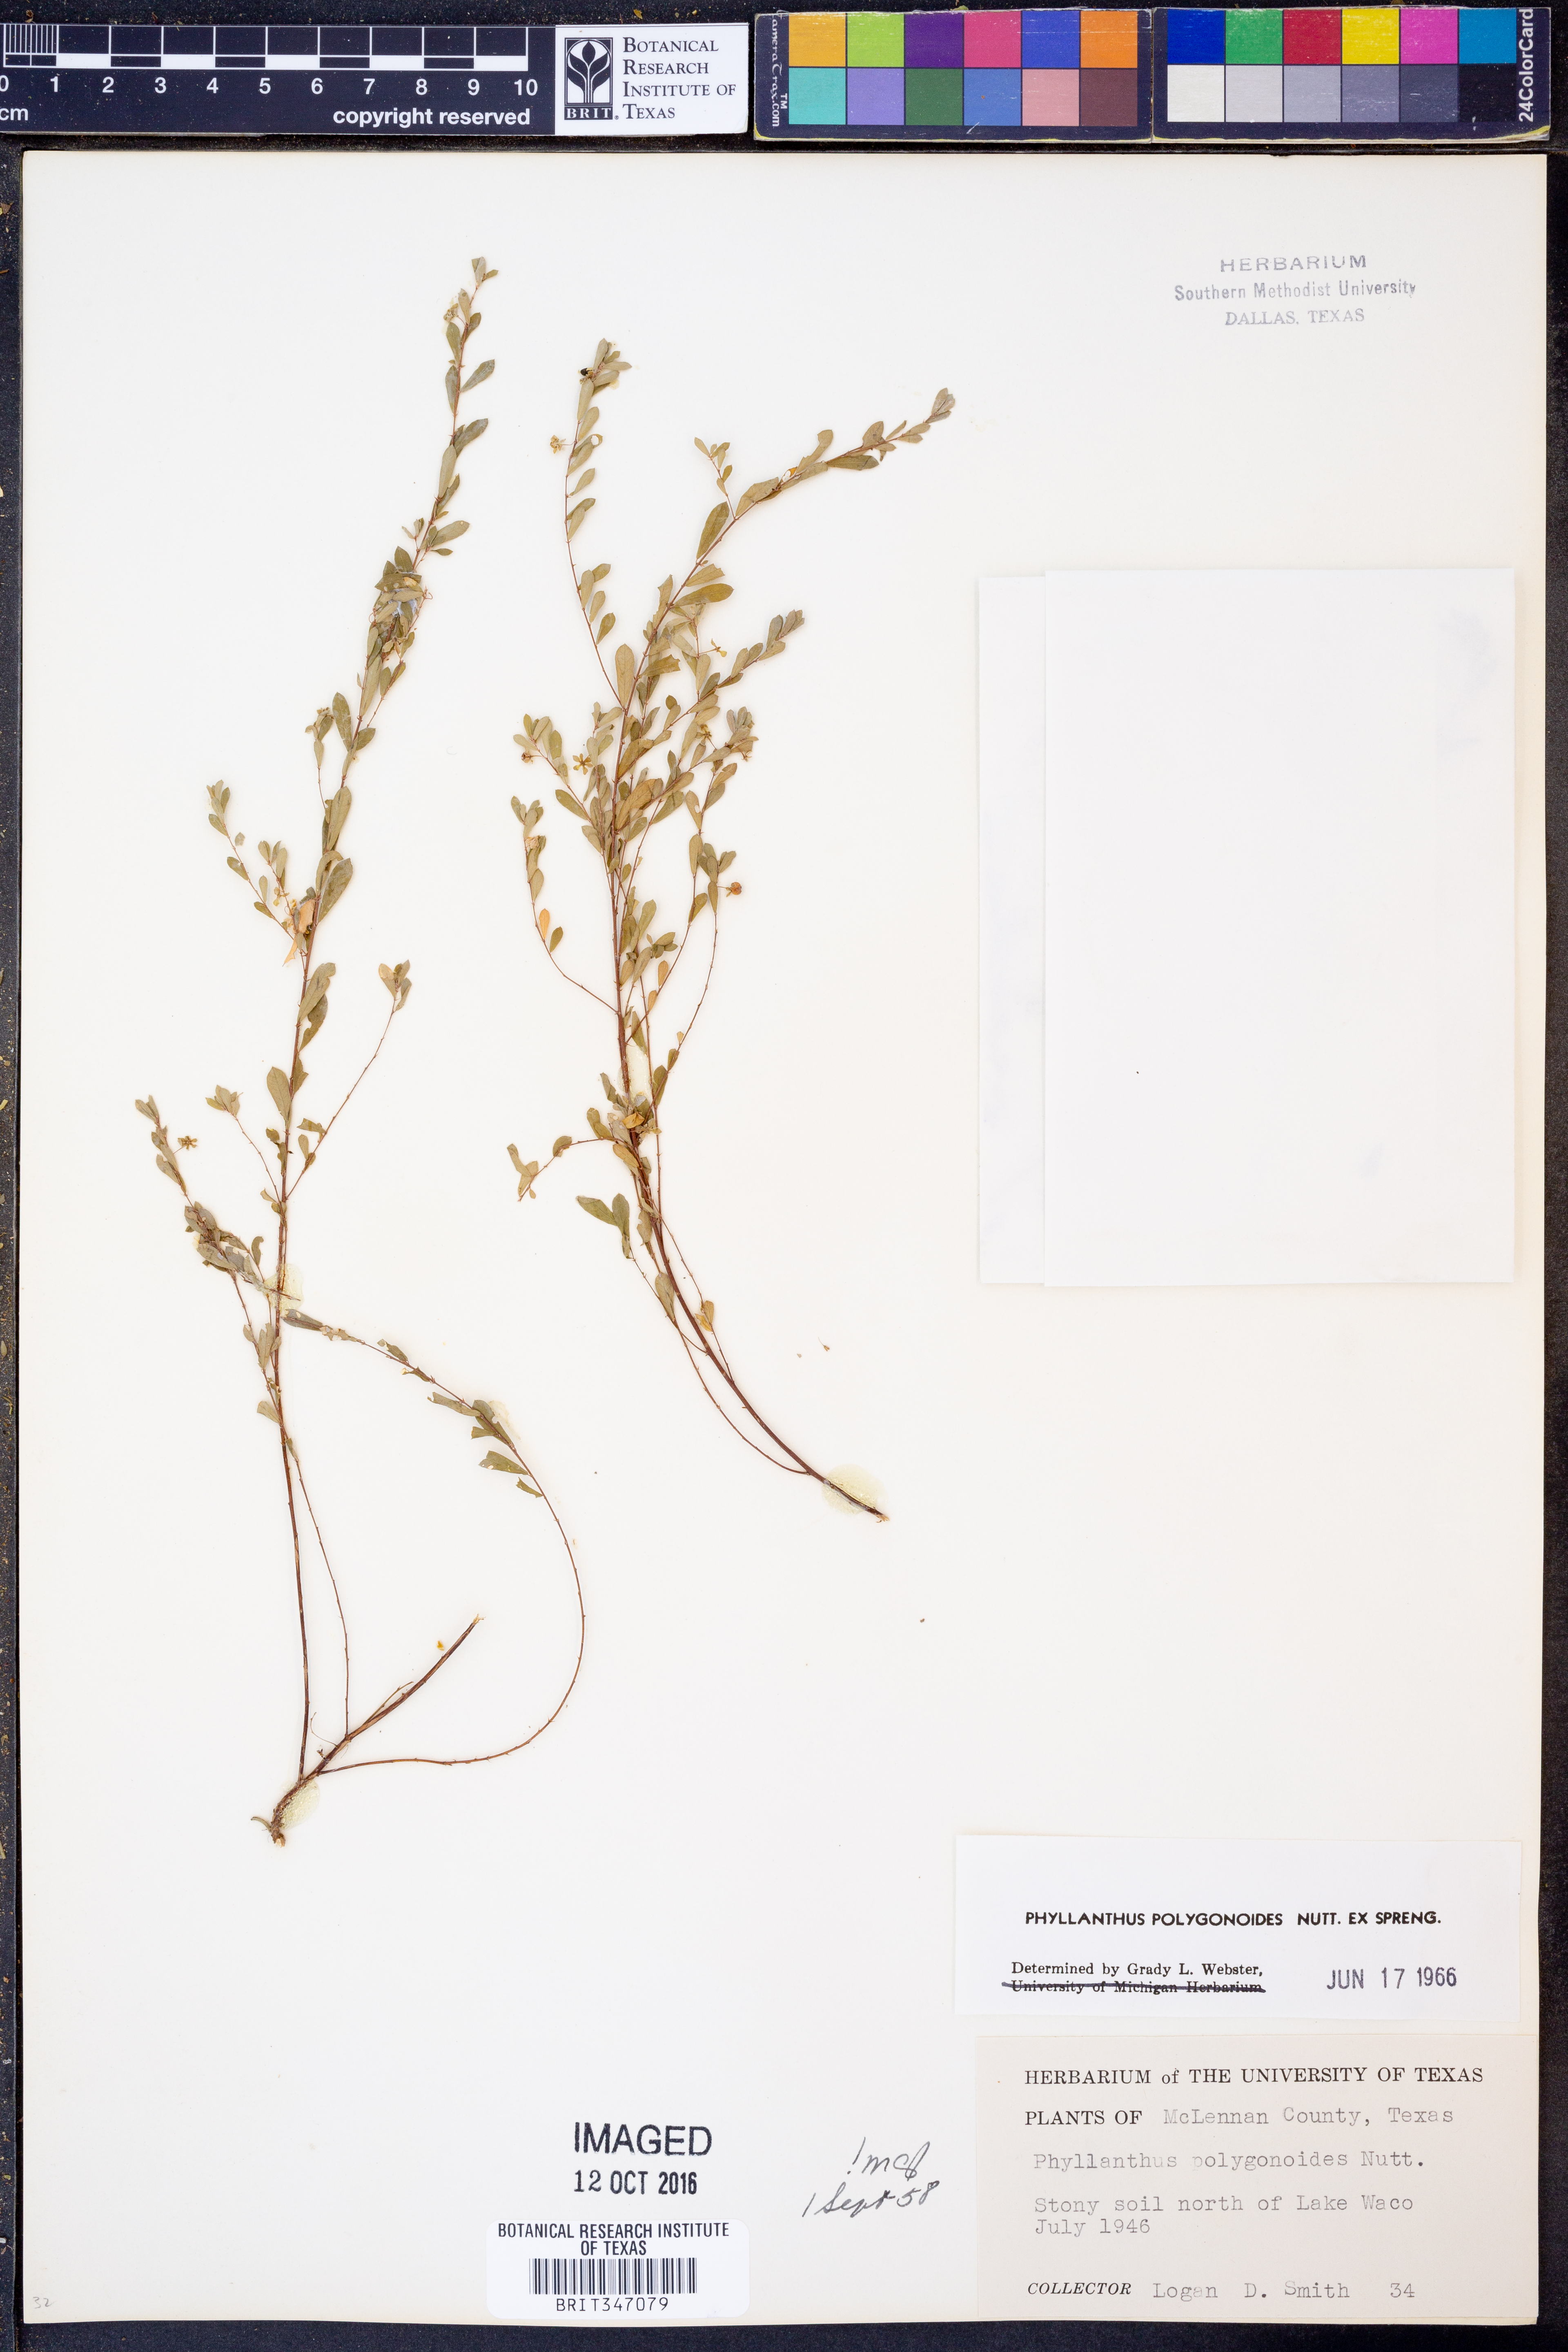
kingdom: Plantae
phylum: Tracheophyta
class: Magnoliopsida
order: Malpighiales
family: Phyllanthaceae
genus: Phyllanthus
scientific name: Phyllanthus polygonoides
